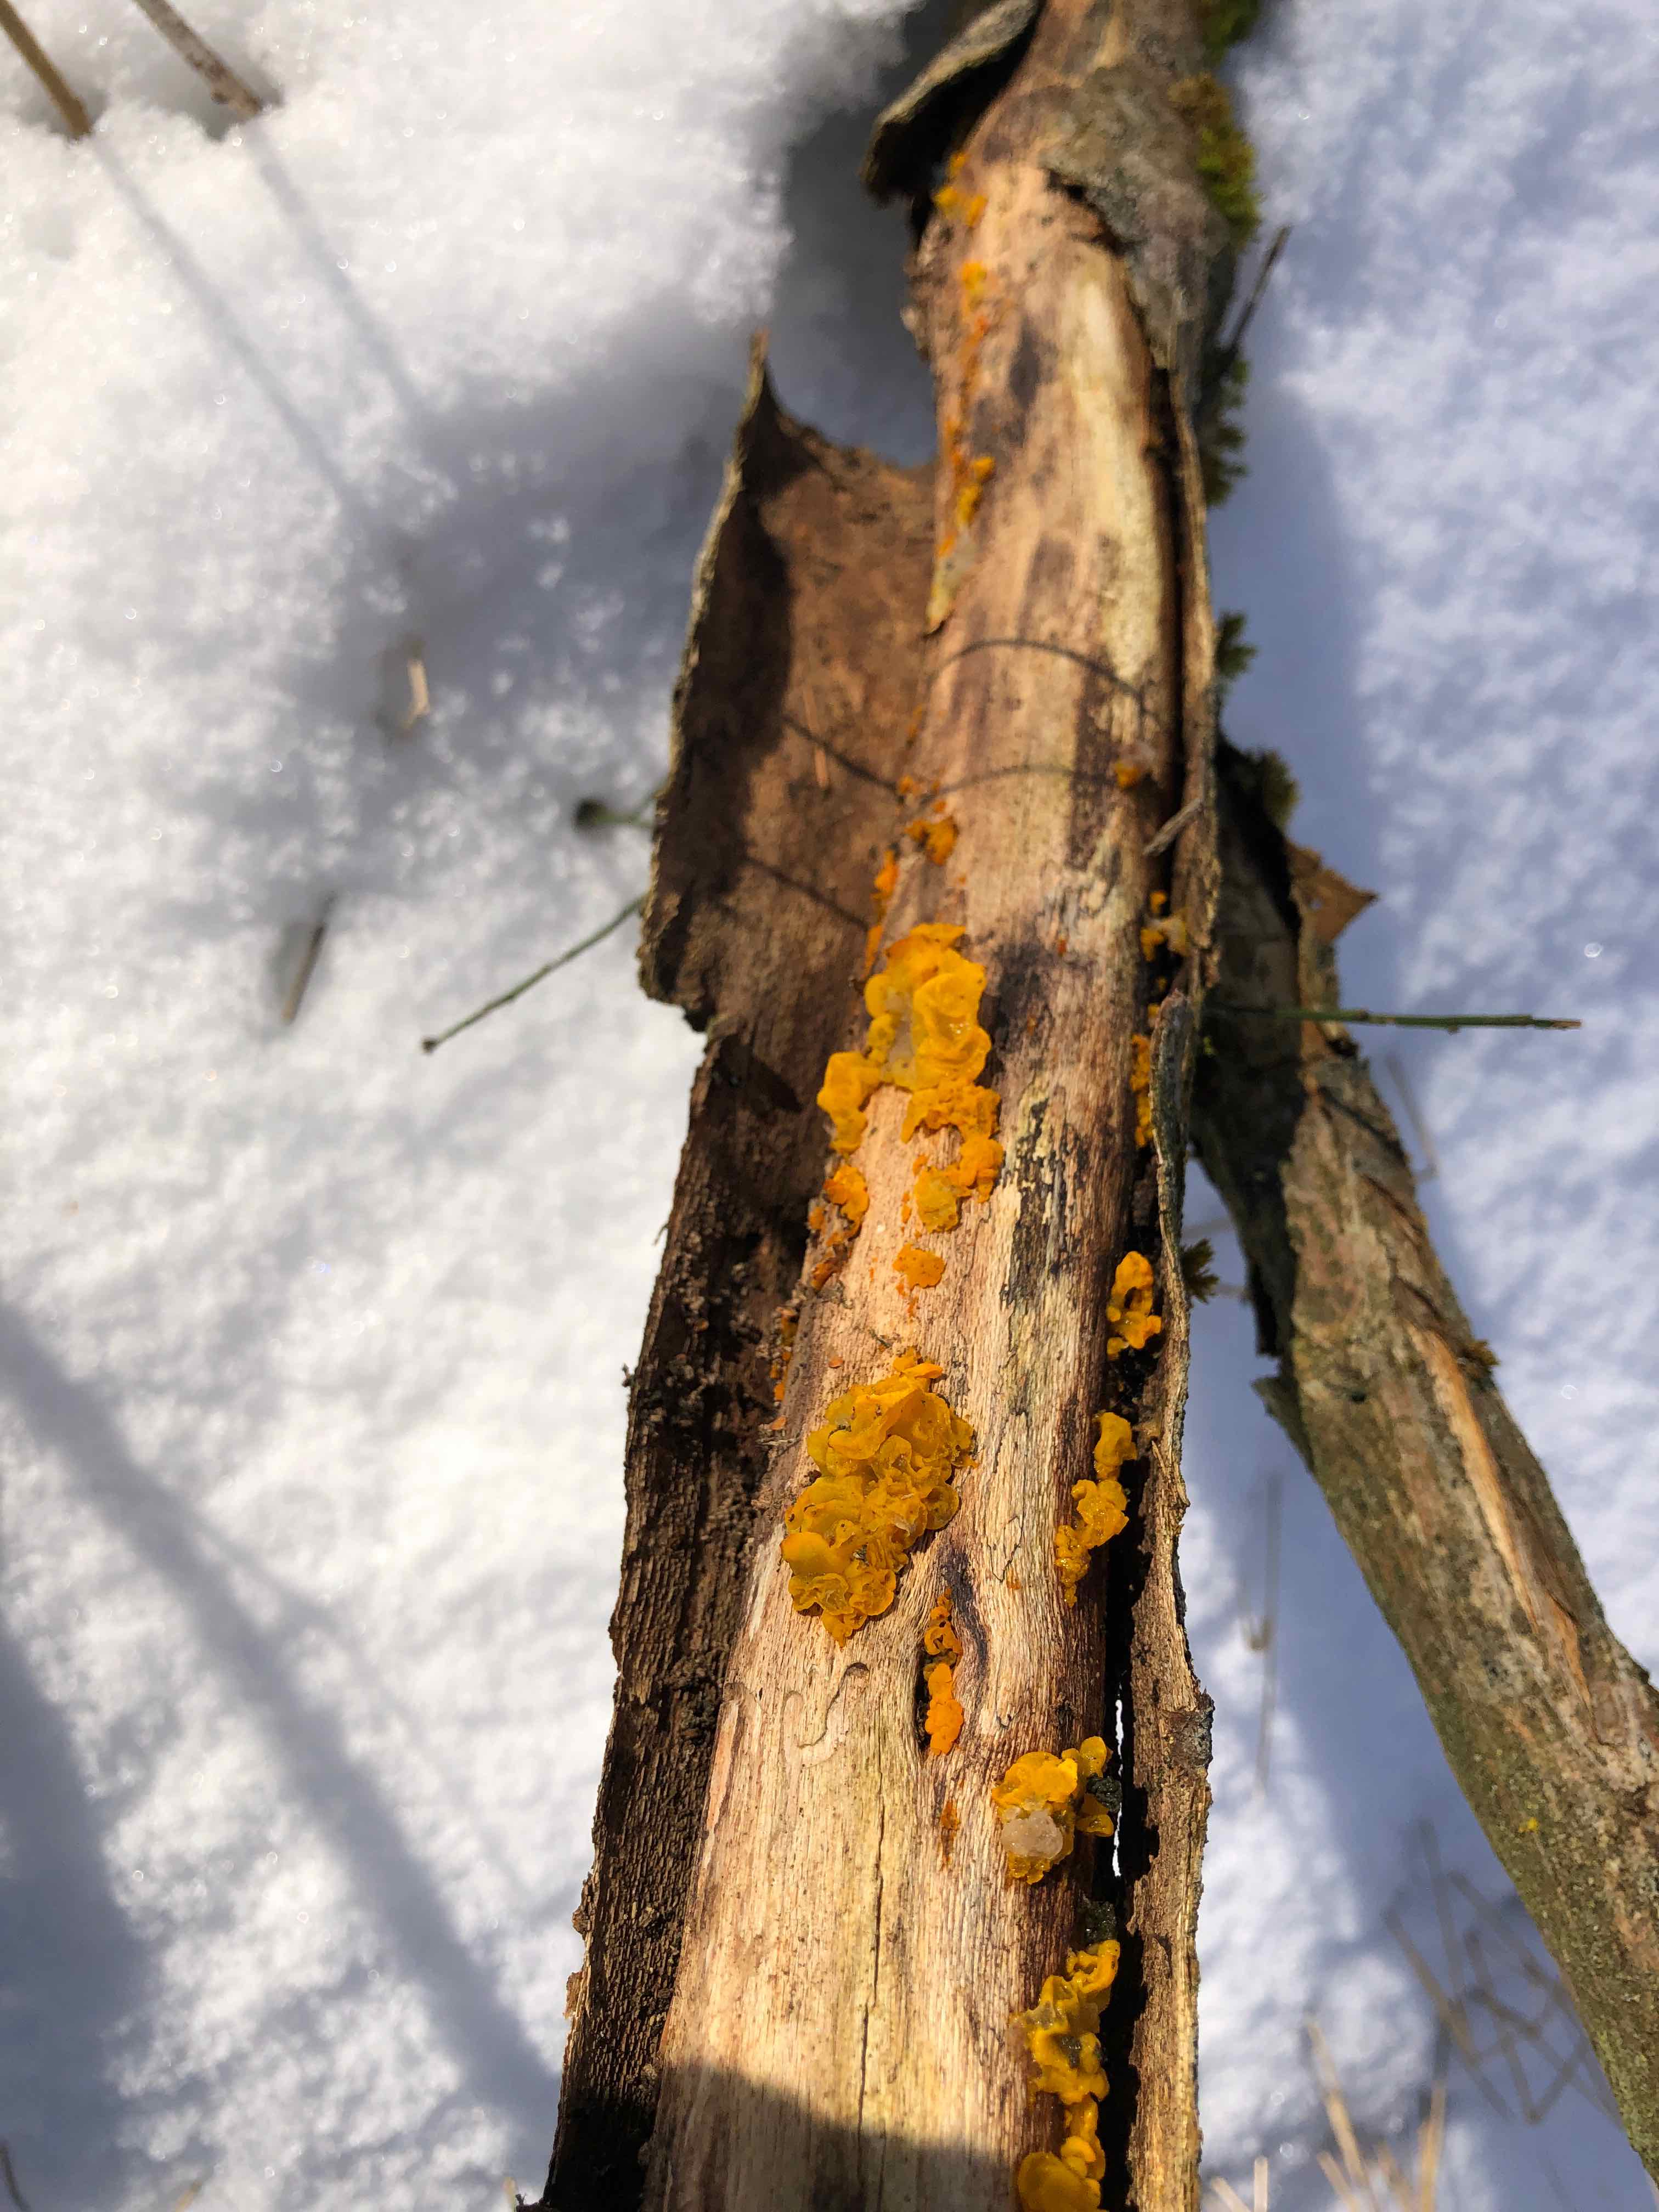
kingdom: Fungi
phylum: Basidiomycota
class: Tremellomycetes
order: Tremellales
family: Tremellaceae
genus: Tremella
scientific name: Tremella mesenterica
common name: gul bævresvamp
